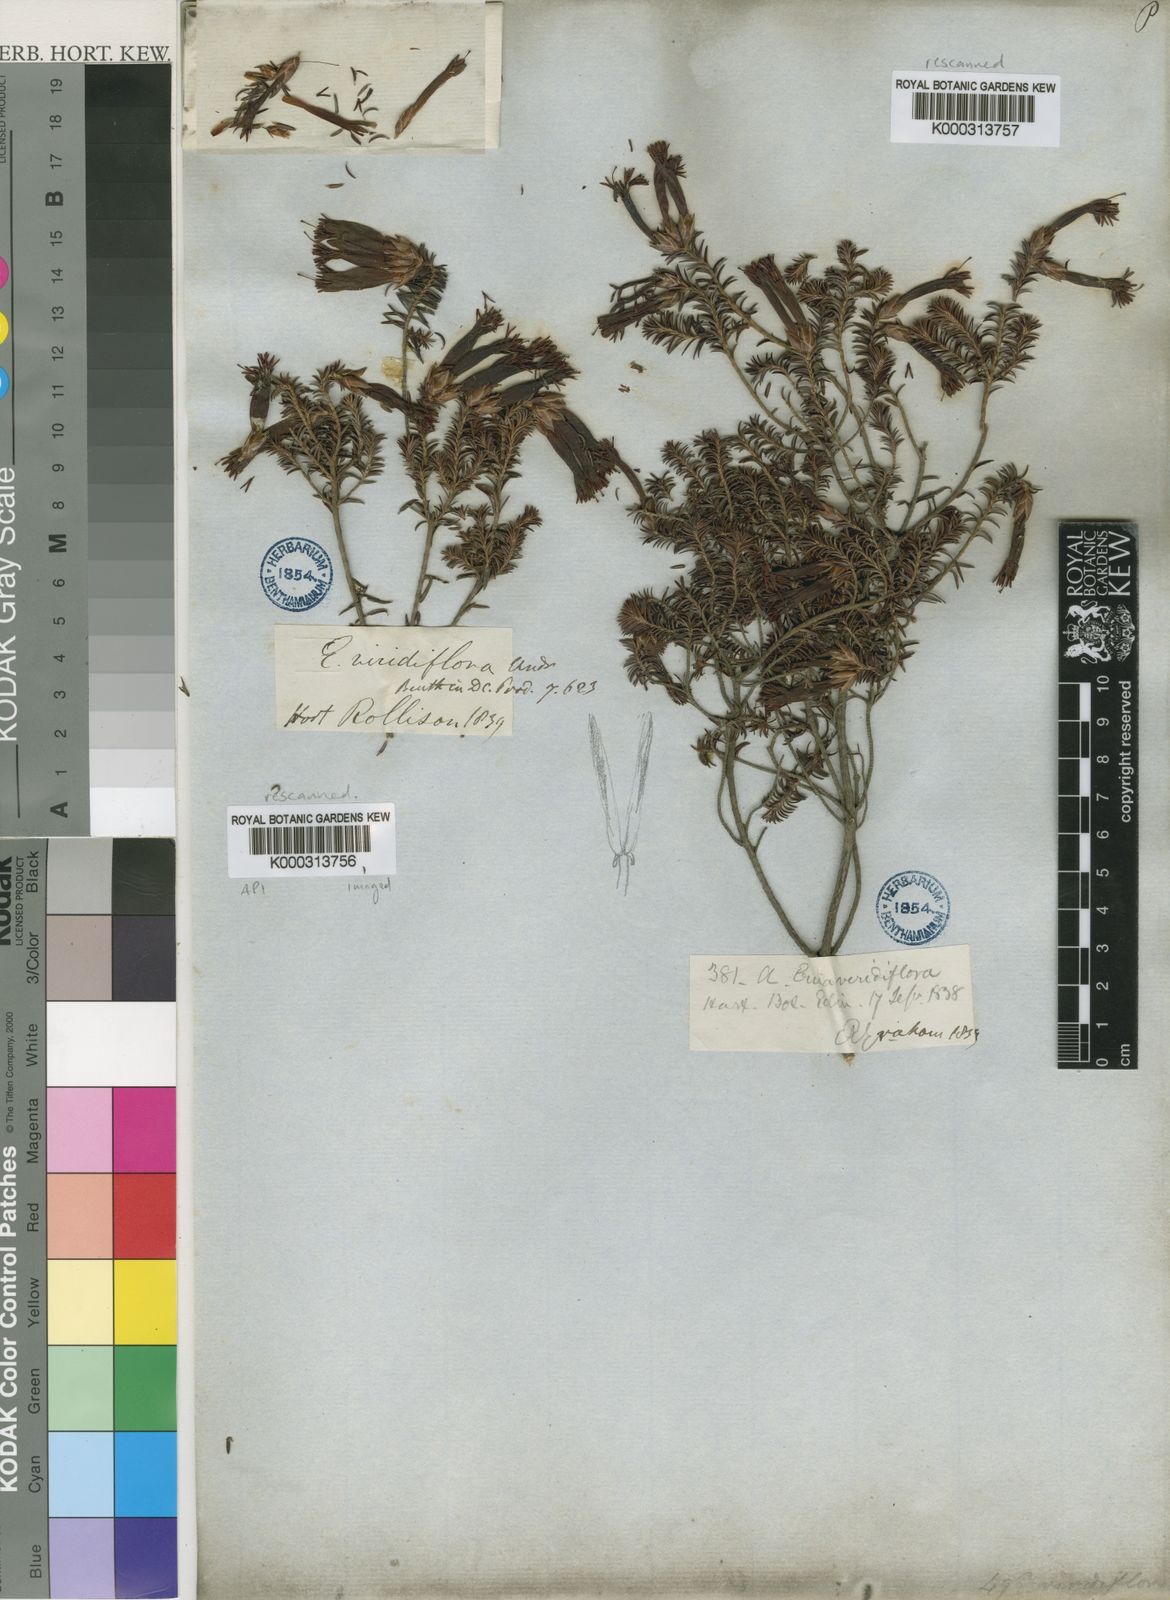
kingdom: Plantae
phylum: Tracheophyta
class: Magnoliopsida
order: Ericales
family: Ericaceae
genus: Erica
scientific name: Erica viridiflora
